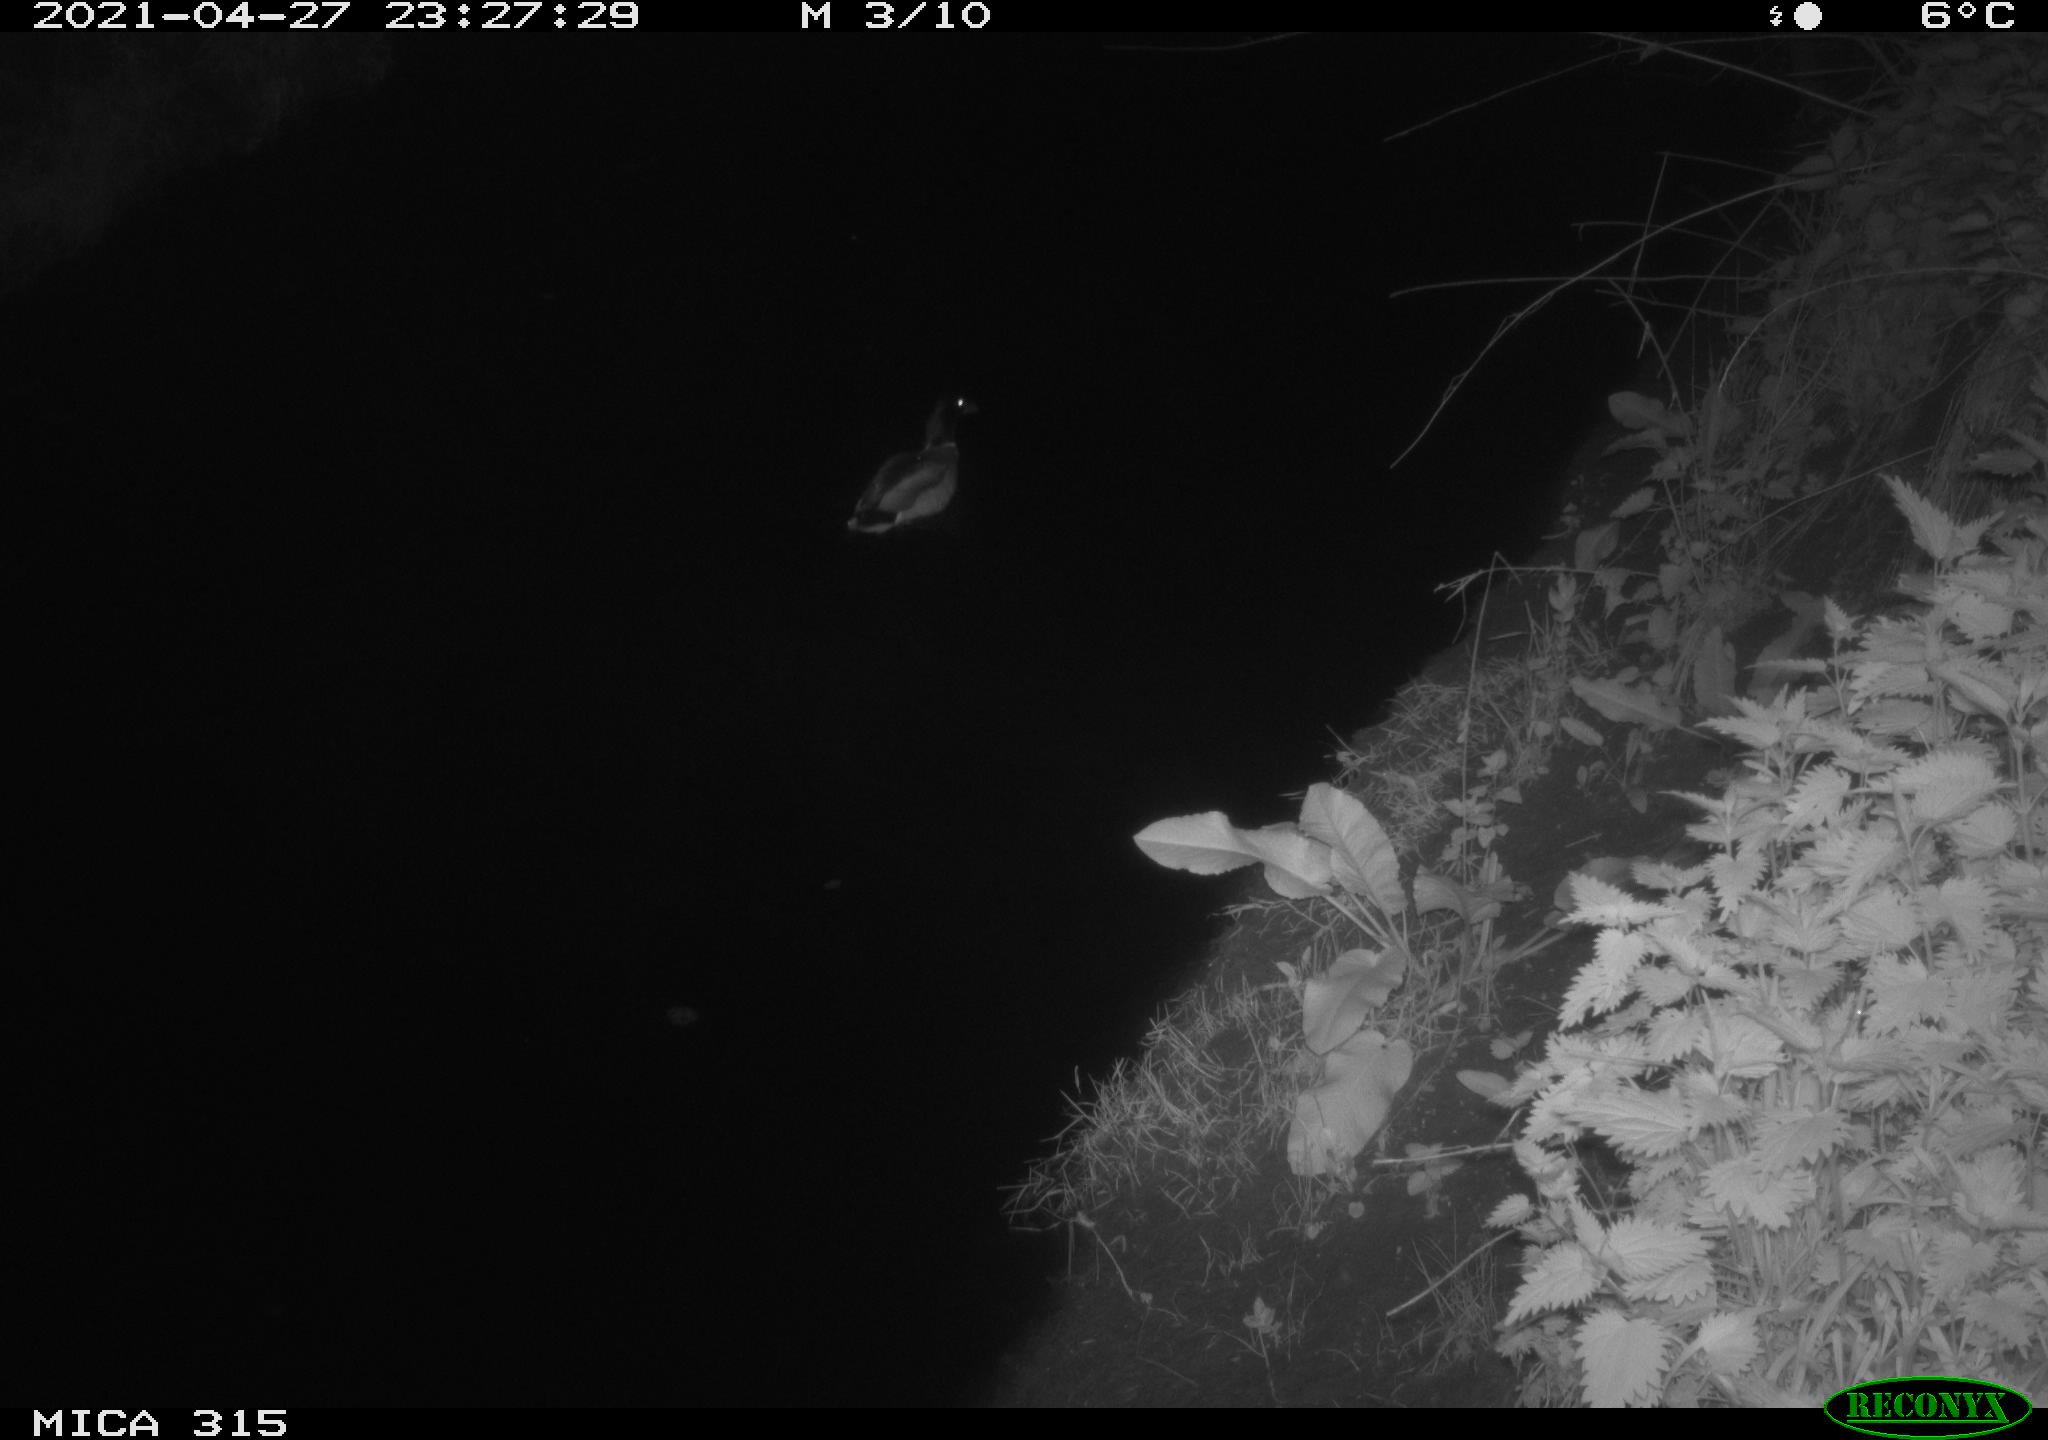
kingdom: Animalia
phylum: Chordata
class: Aves
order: Anseriformes
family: Anatidae
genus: Anas
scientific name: Anas
